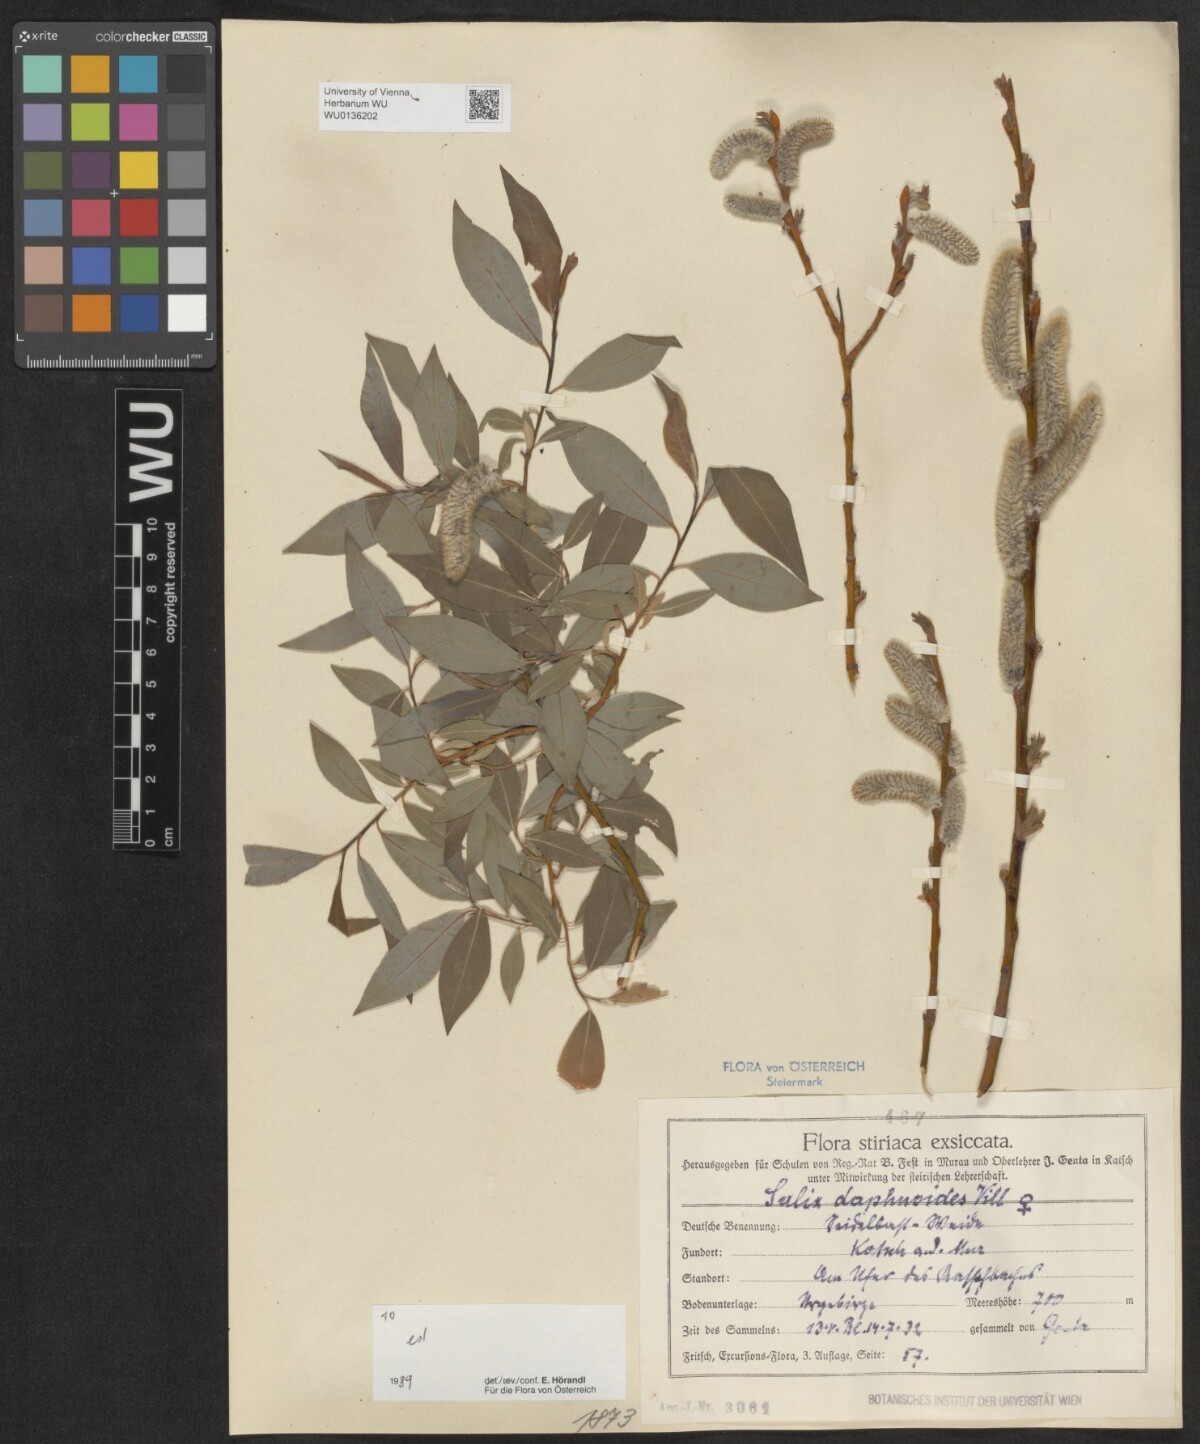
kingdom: Plantae
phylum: Tracheophyta
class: Magnoliopsida
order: Malpighiales
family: Salicaceae
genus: Salix
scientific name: Salix daphnoides
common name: European violet-willow
